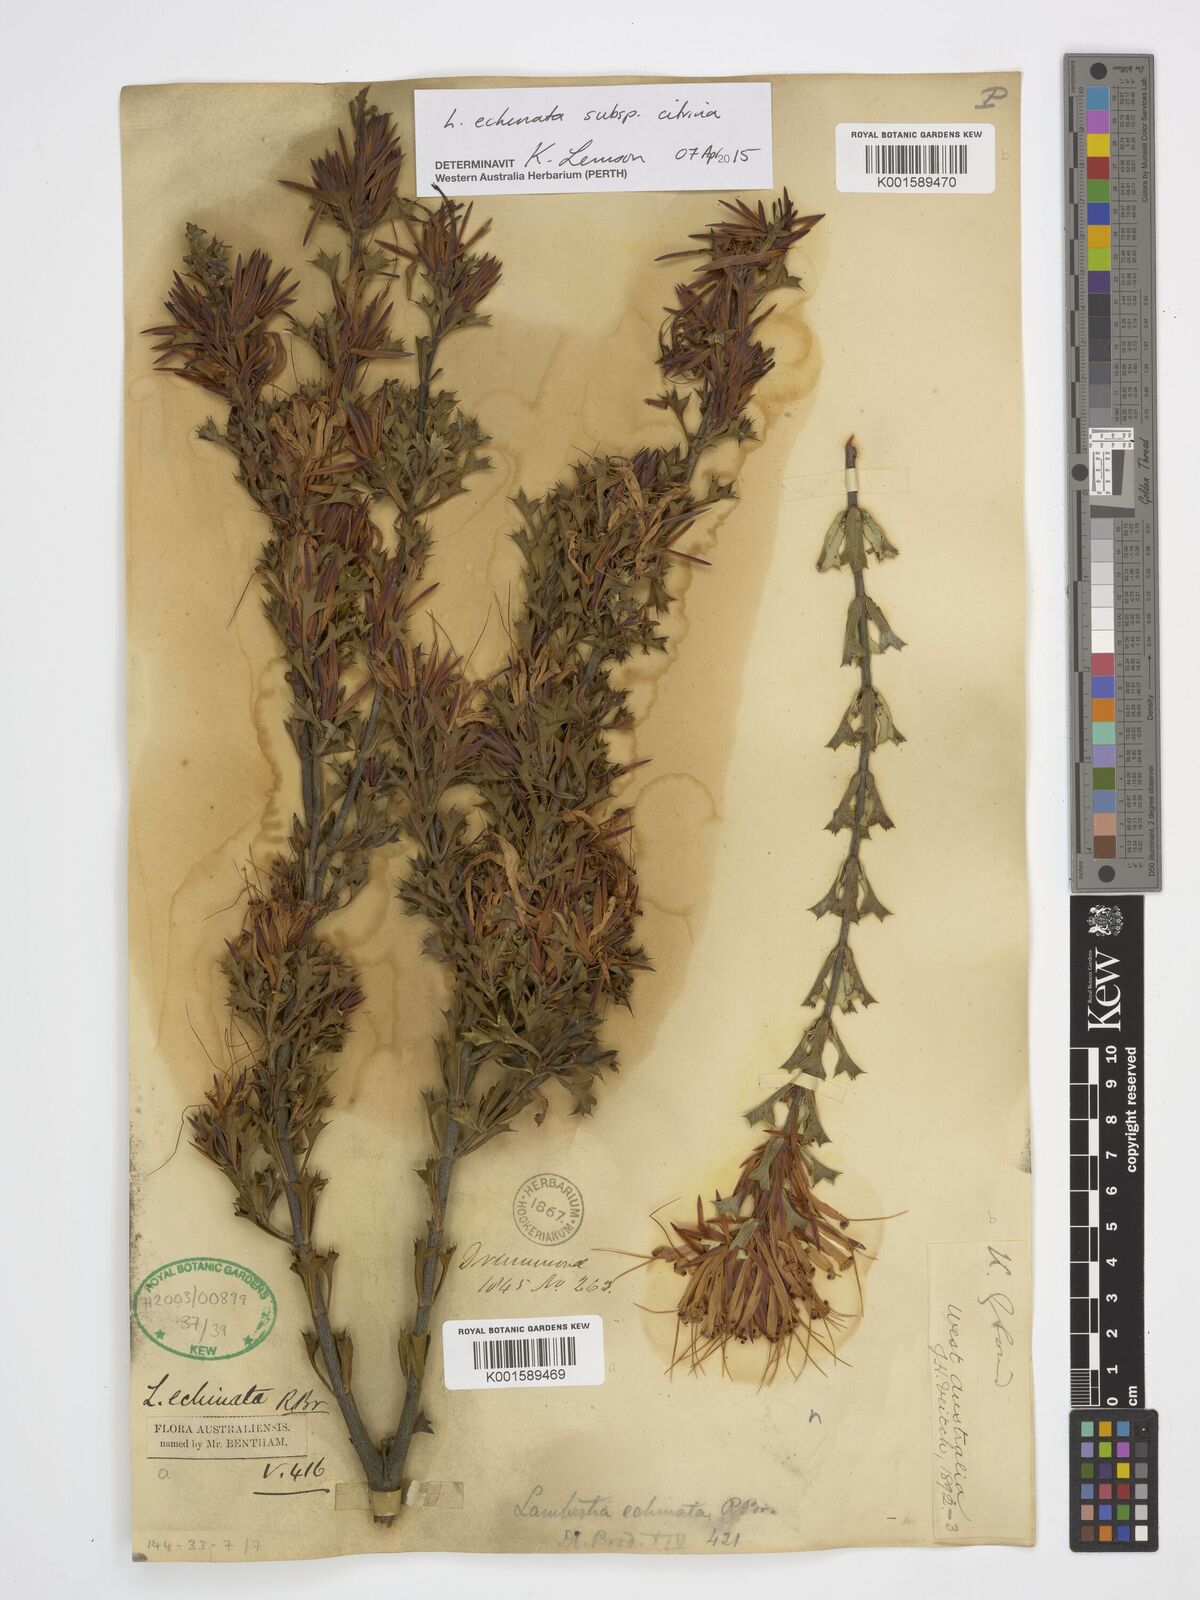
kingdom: Plantae
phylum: Tracheophyta
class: Magnoliopsida
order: Proteales
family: Proteaceae
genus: Lambertia
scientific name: Lambertia echinata
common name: Prickly honeysuckle
